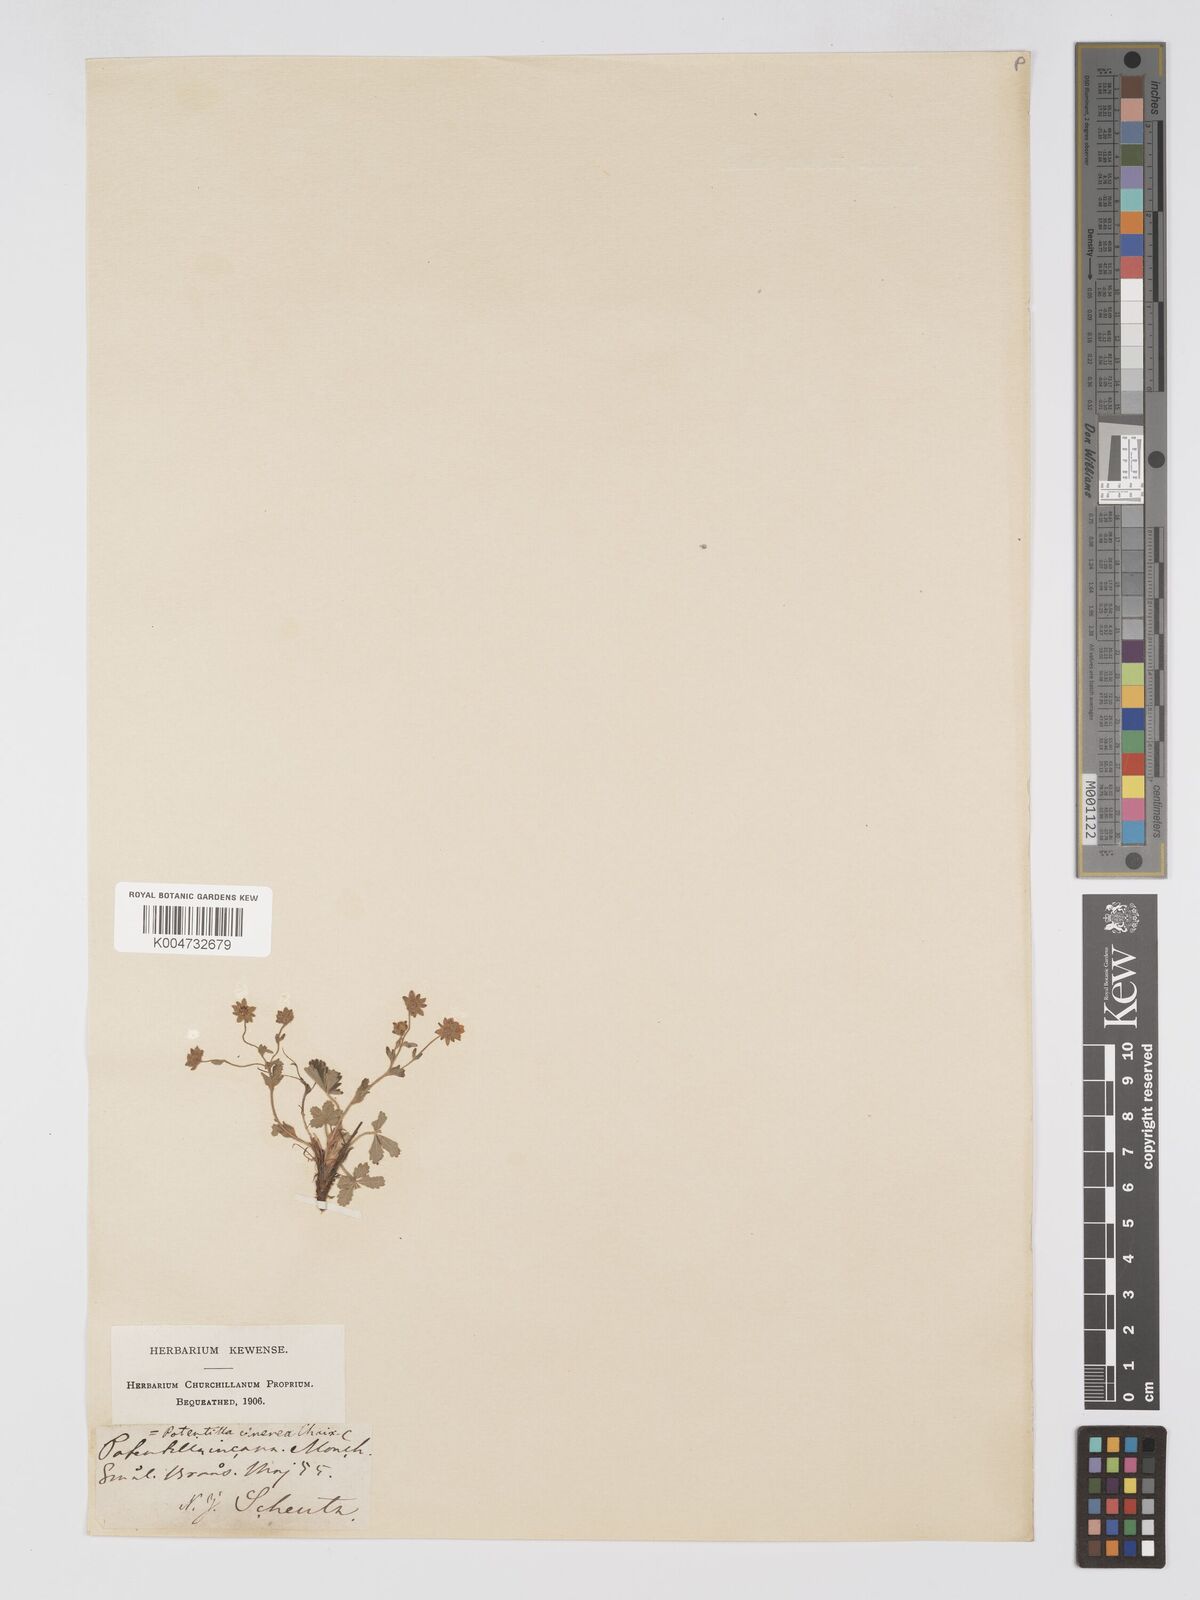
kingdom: Plantae
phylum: Tracheophyta
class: Magnoliopsida
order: Rosales
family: Rosaceae
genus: Potentilla
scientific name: Potentilla cinerea
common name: Ashy cinquefoil
